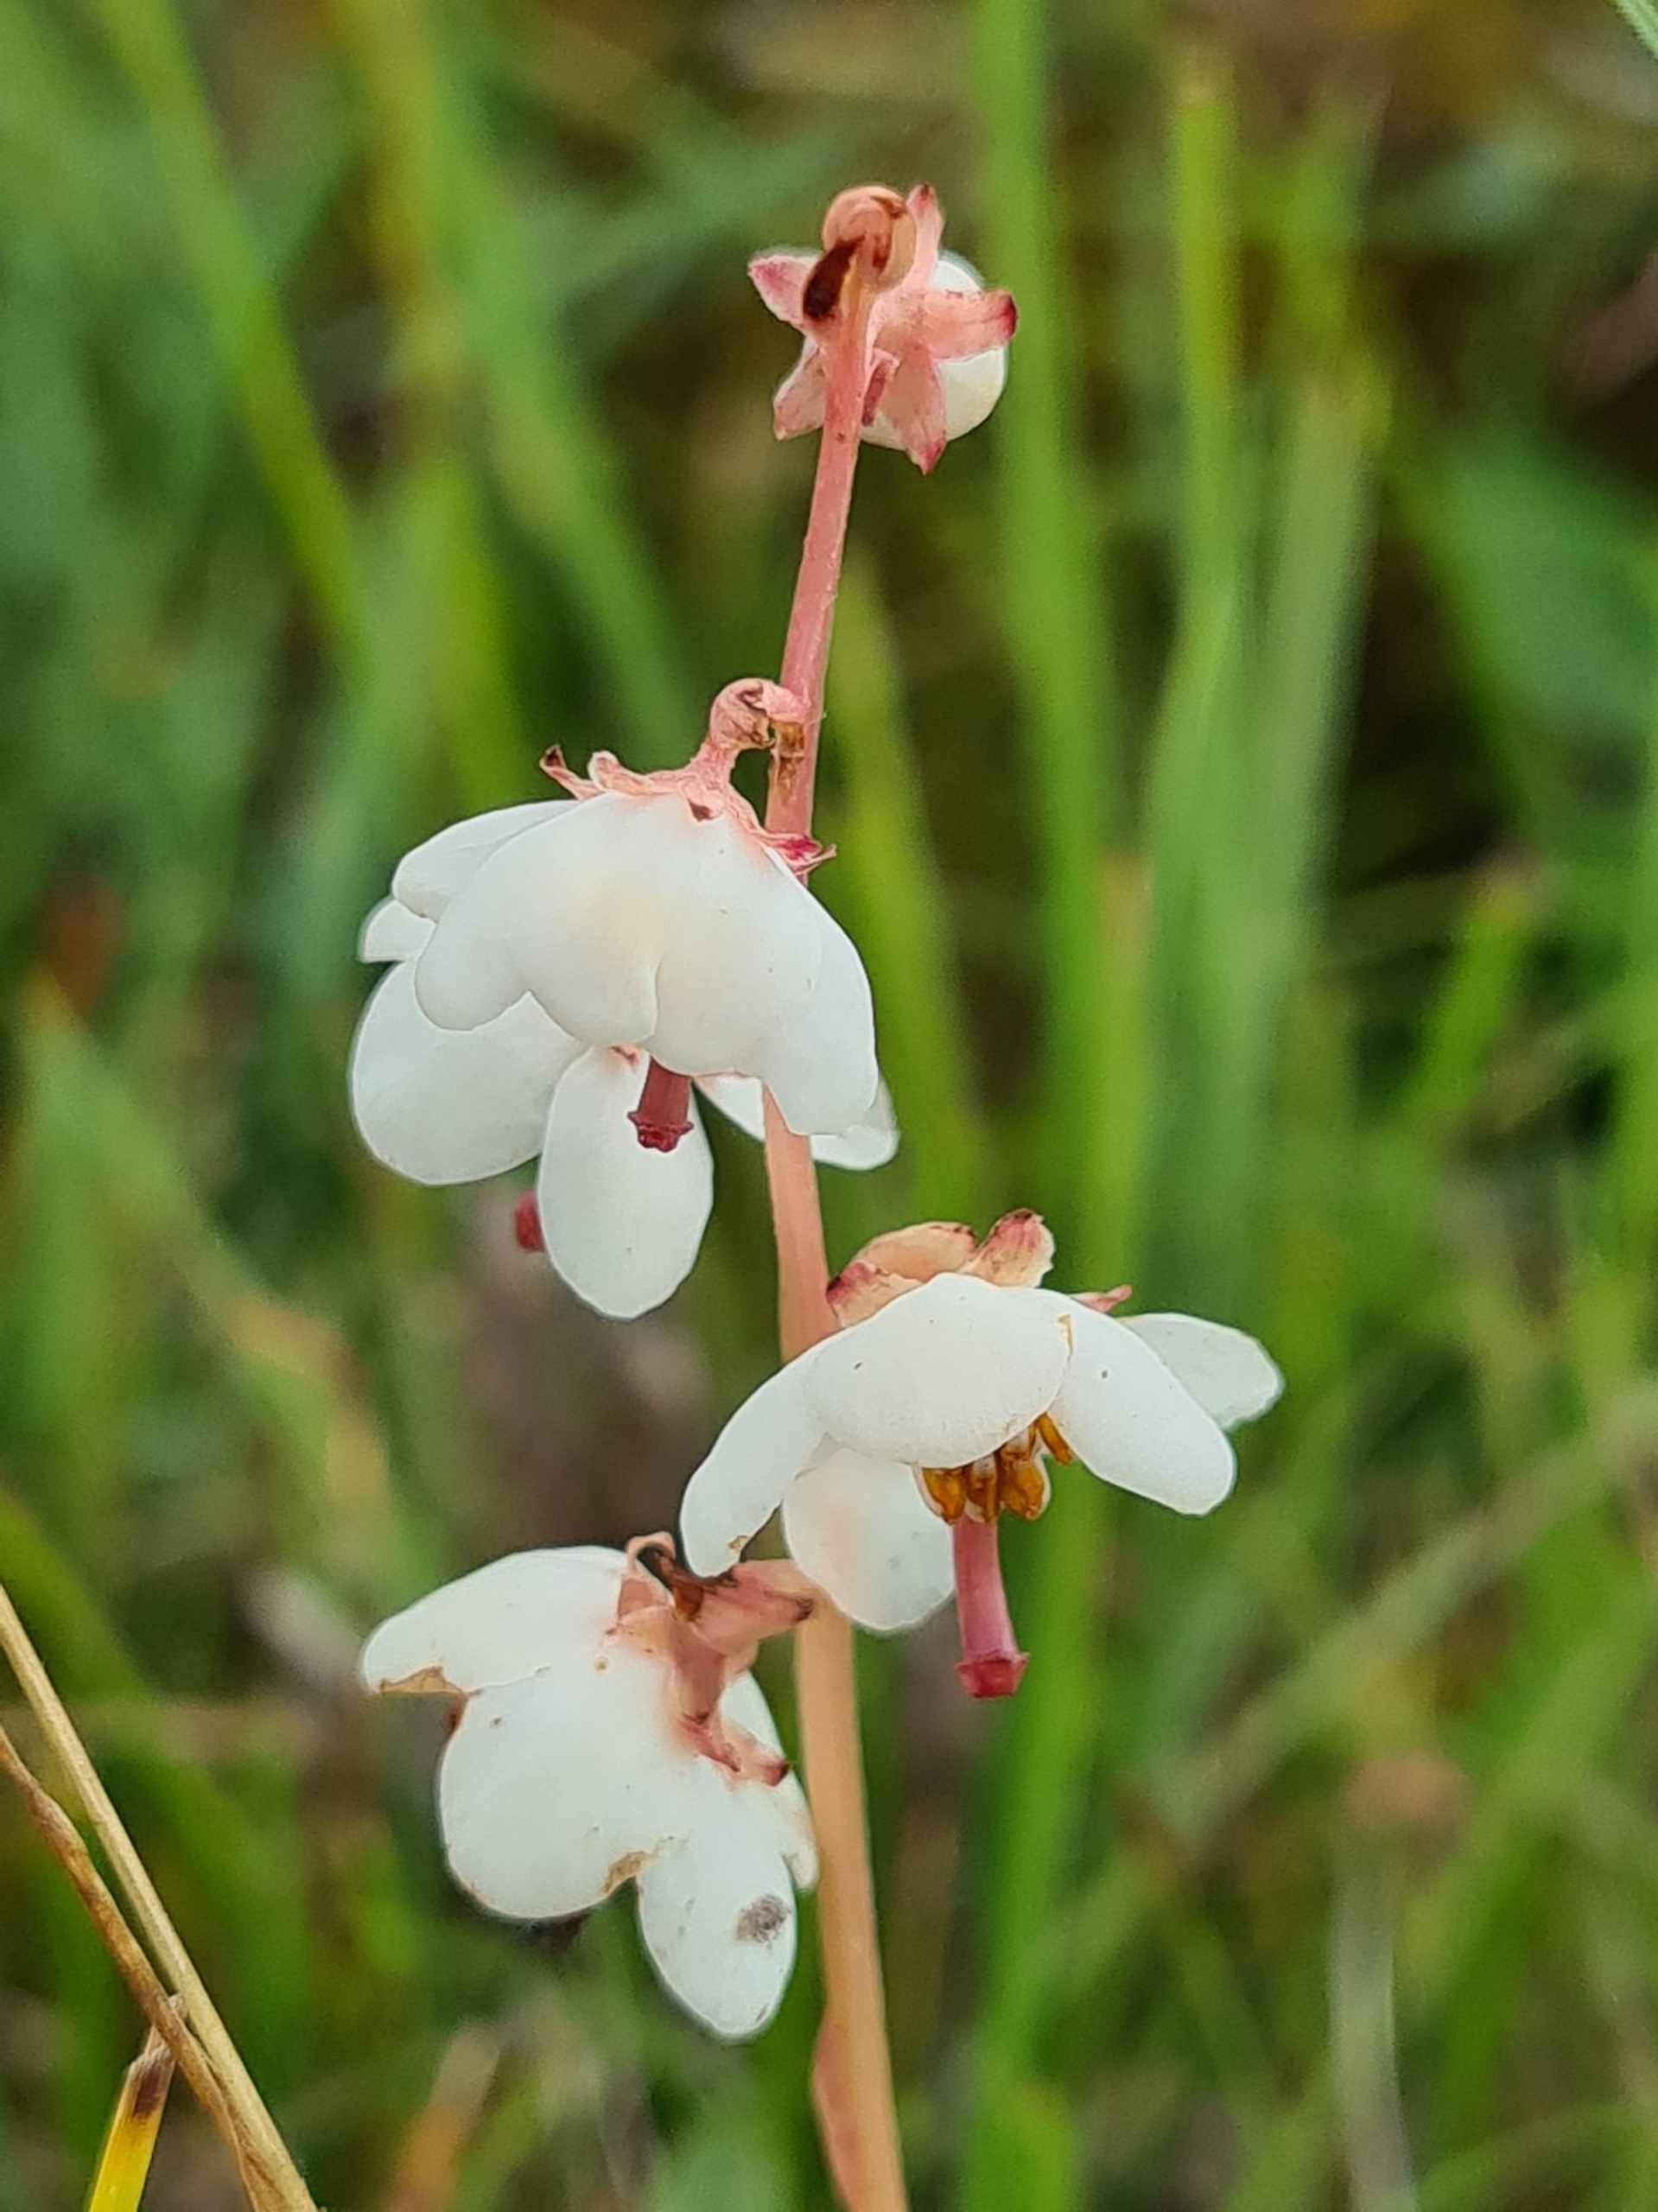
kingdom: Plantae
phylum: Tracheophyta
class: Magnoliopsida
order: Ericales
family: Ericaceae
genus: Pyrola
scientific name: Pyrola rotundifolia
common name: Klit-vintergrøn
